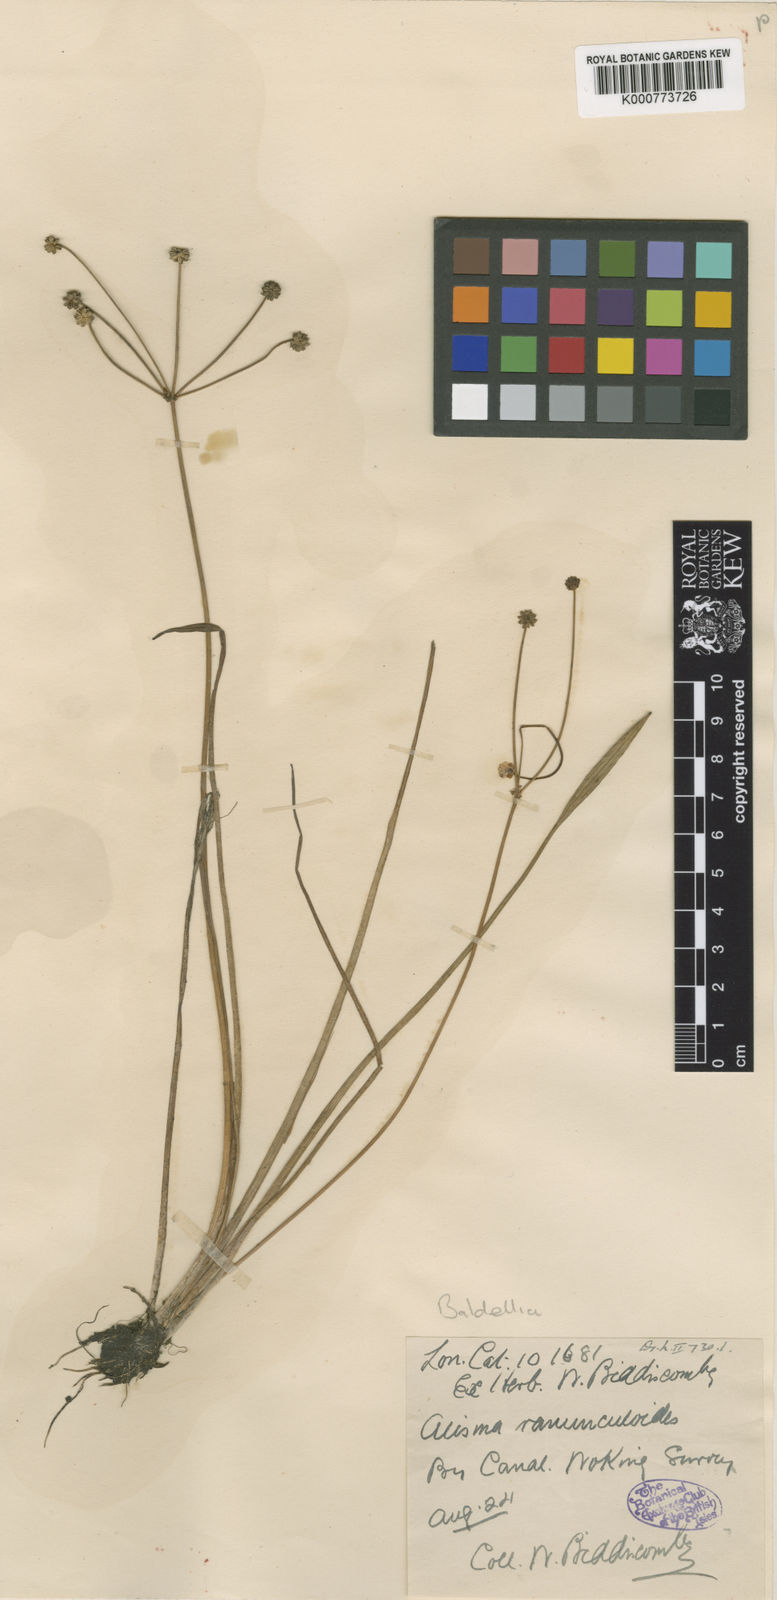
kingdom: Plantae
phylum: Tracheophyta
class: Liliopsida
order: Alismatales
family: Alismataceae
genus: Baldellia
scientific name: Baldellia ranunculoides
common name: Lesser water-plantain
